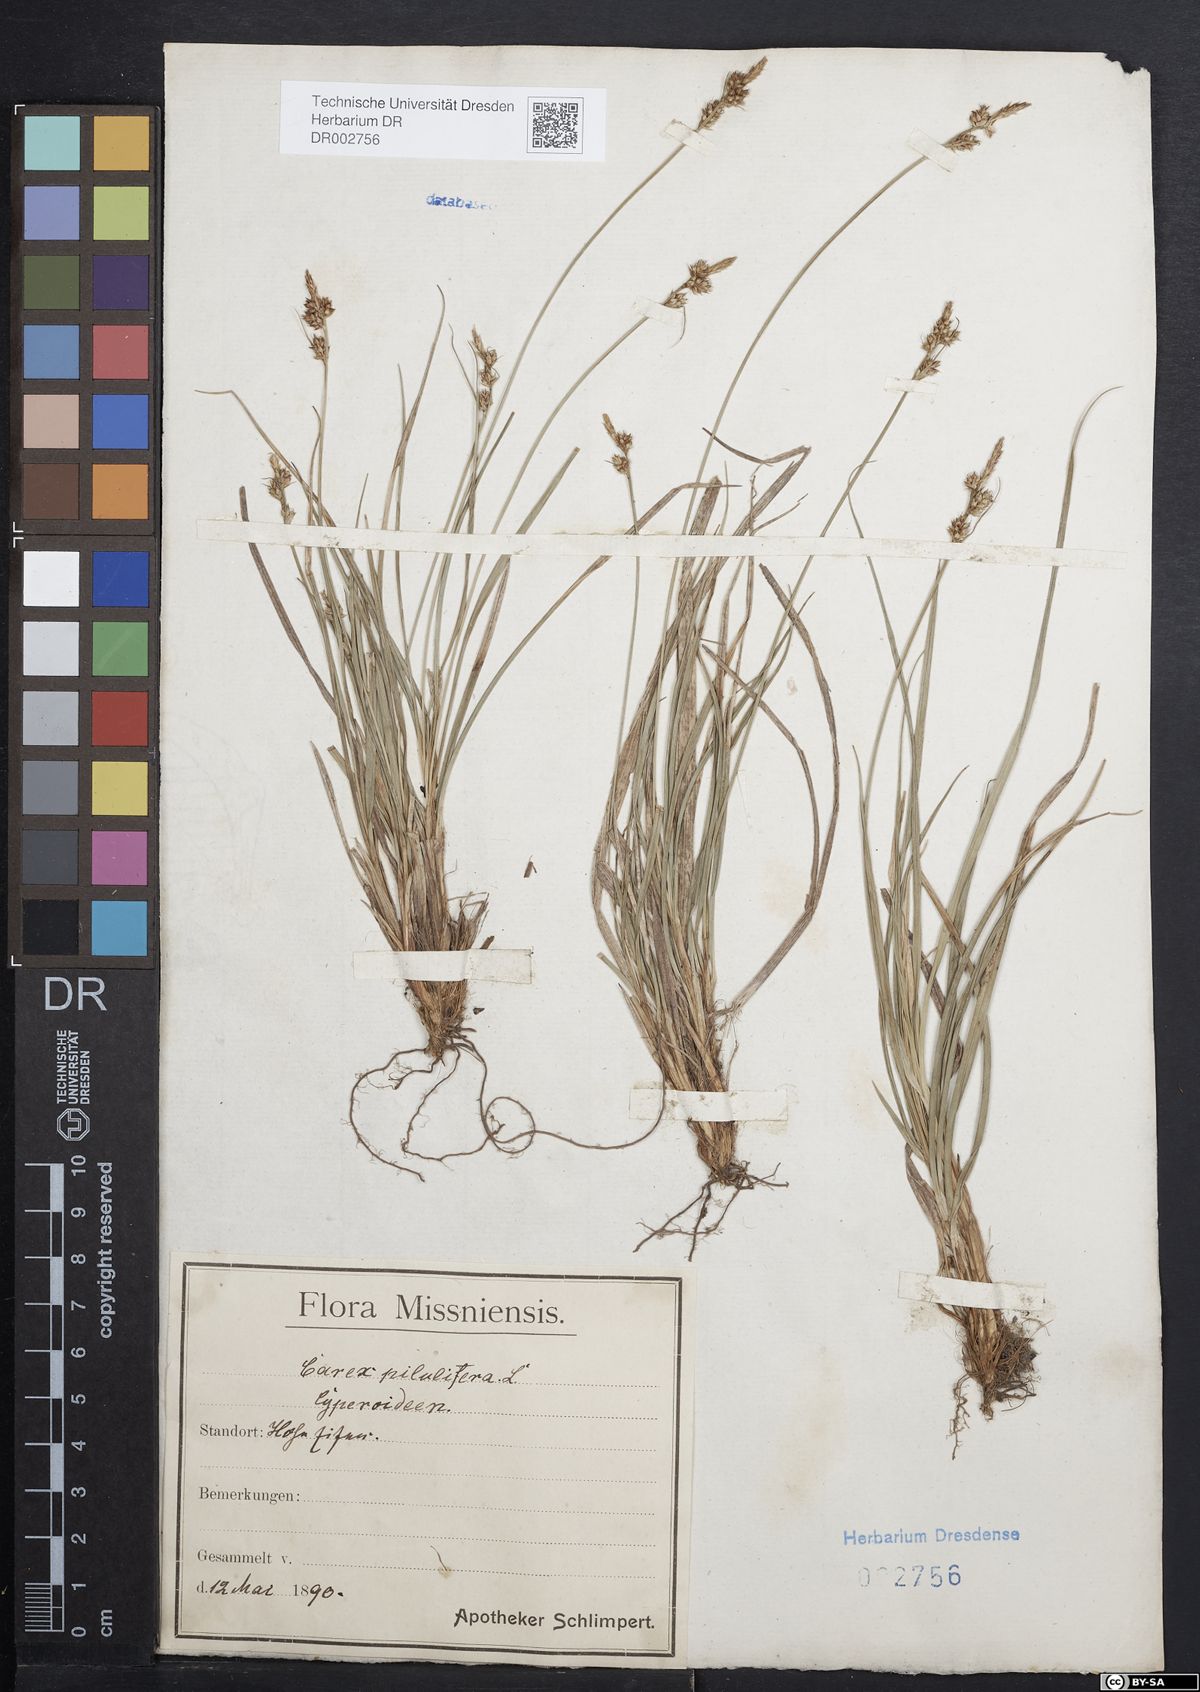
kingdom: Plantae
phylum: Tracheophyta
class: Liliopsida
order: Poales
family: Cyperaceae
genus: Carex
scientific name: Carex caryophyllea
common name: Spring sedge
